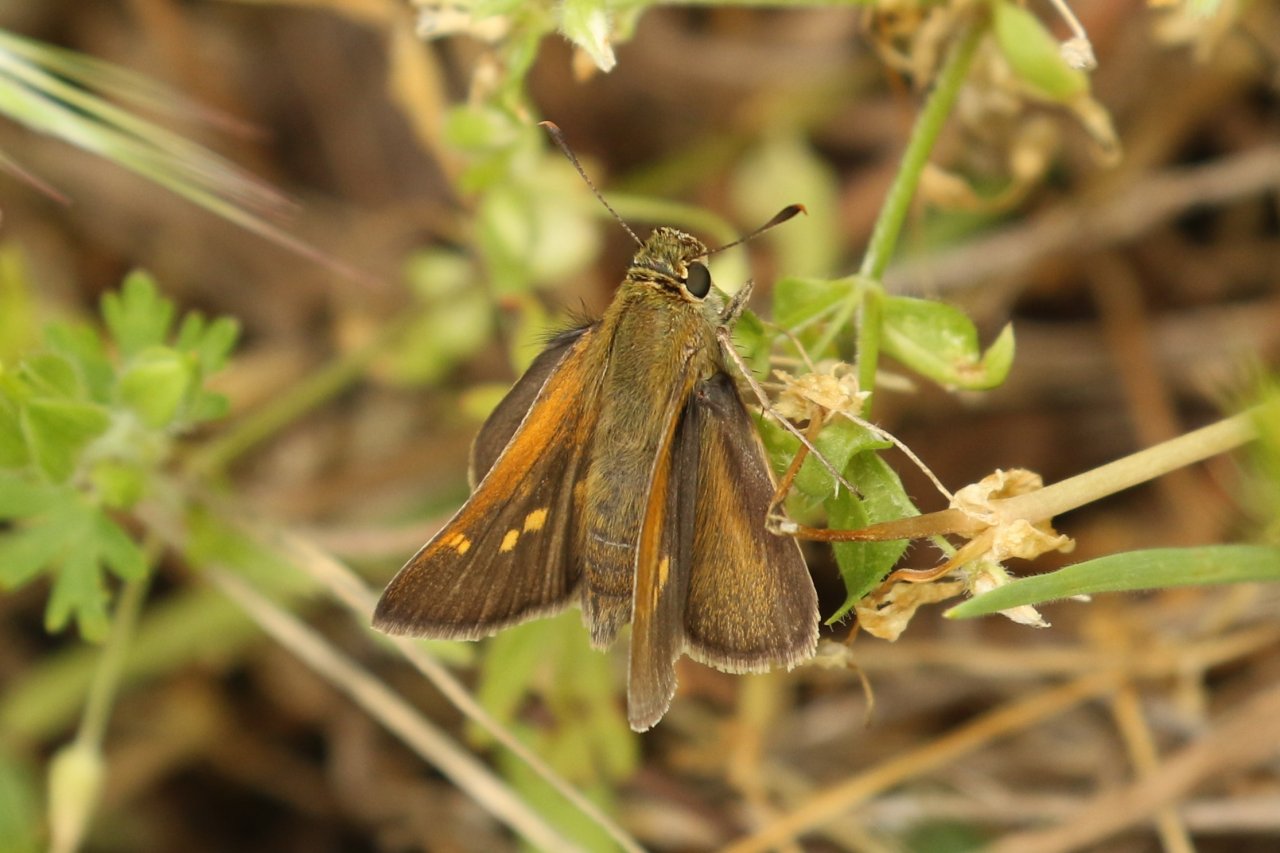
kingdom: Animalia
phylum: Arthropoda
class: Insecta
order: Lepidoptera
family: Hesperiidae
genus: Polites
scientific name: Polites themistocles
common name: Tawny-edged Skipper
